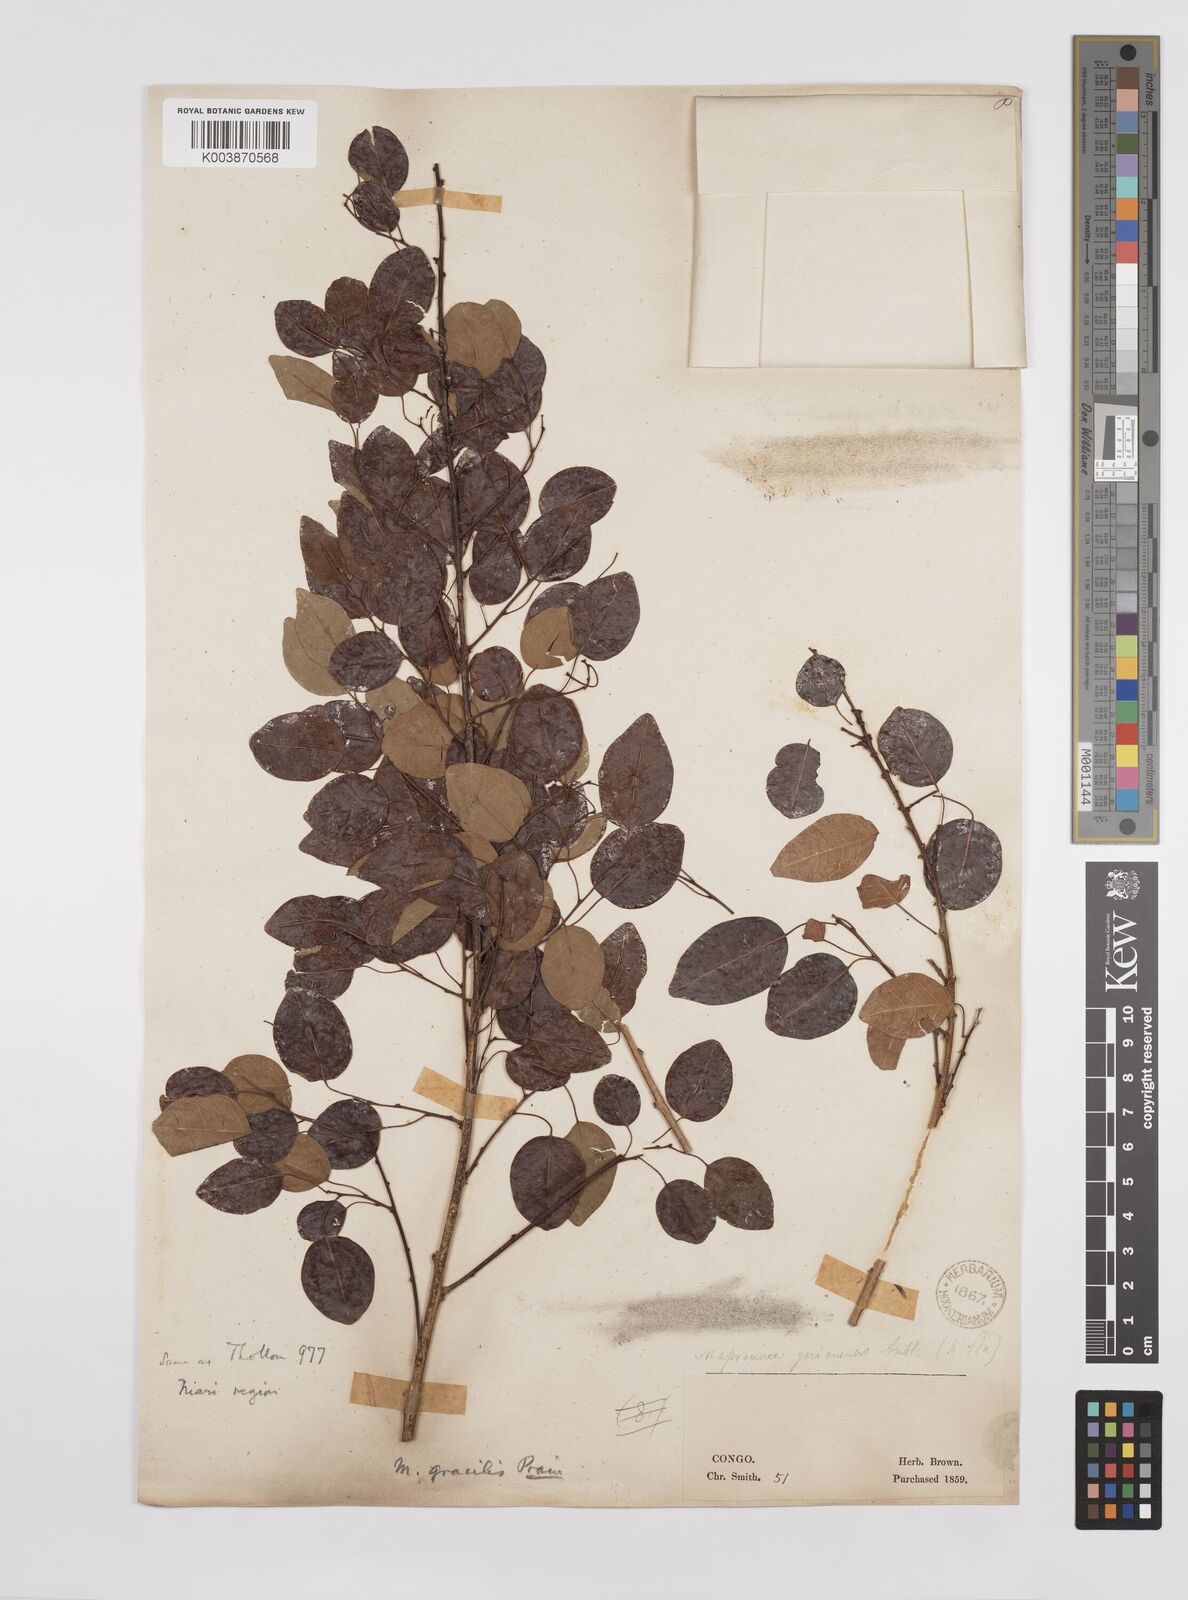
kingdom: Plantae
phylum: Tracheophyta
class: Magnoliopsida
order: Malpighiales
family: Euphorbiaceae
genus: Maprounea
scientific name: Maprounea africana
